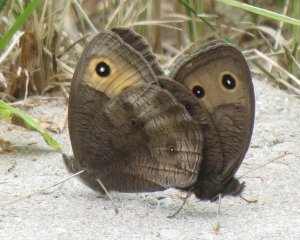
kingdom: Animalia
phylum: Arthropoda
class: Insecta
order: Lepidoptera
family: Nymphalidae
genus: Cercyonis
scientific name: Cercyonis pegala
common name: Common Wood-Nymph
